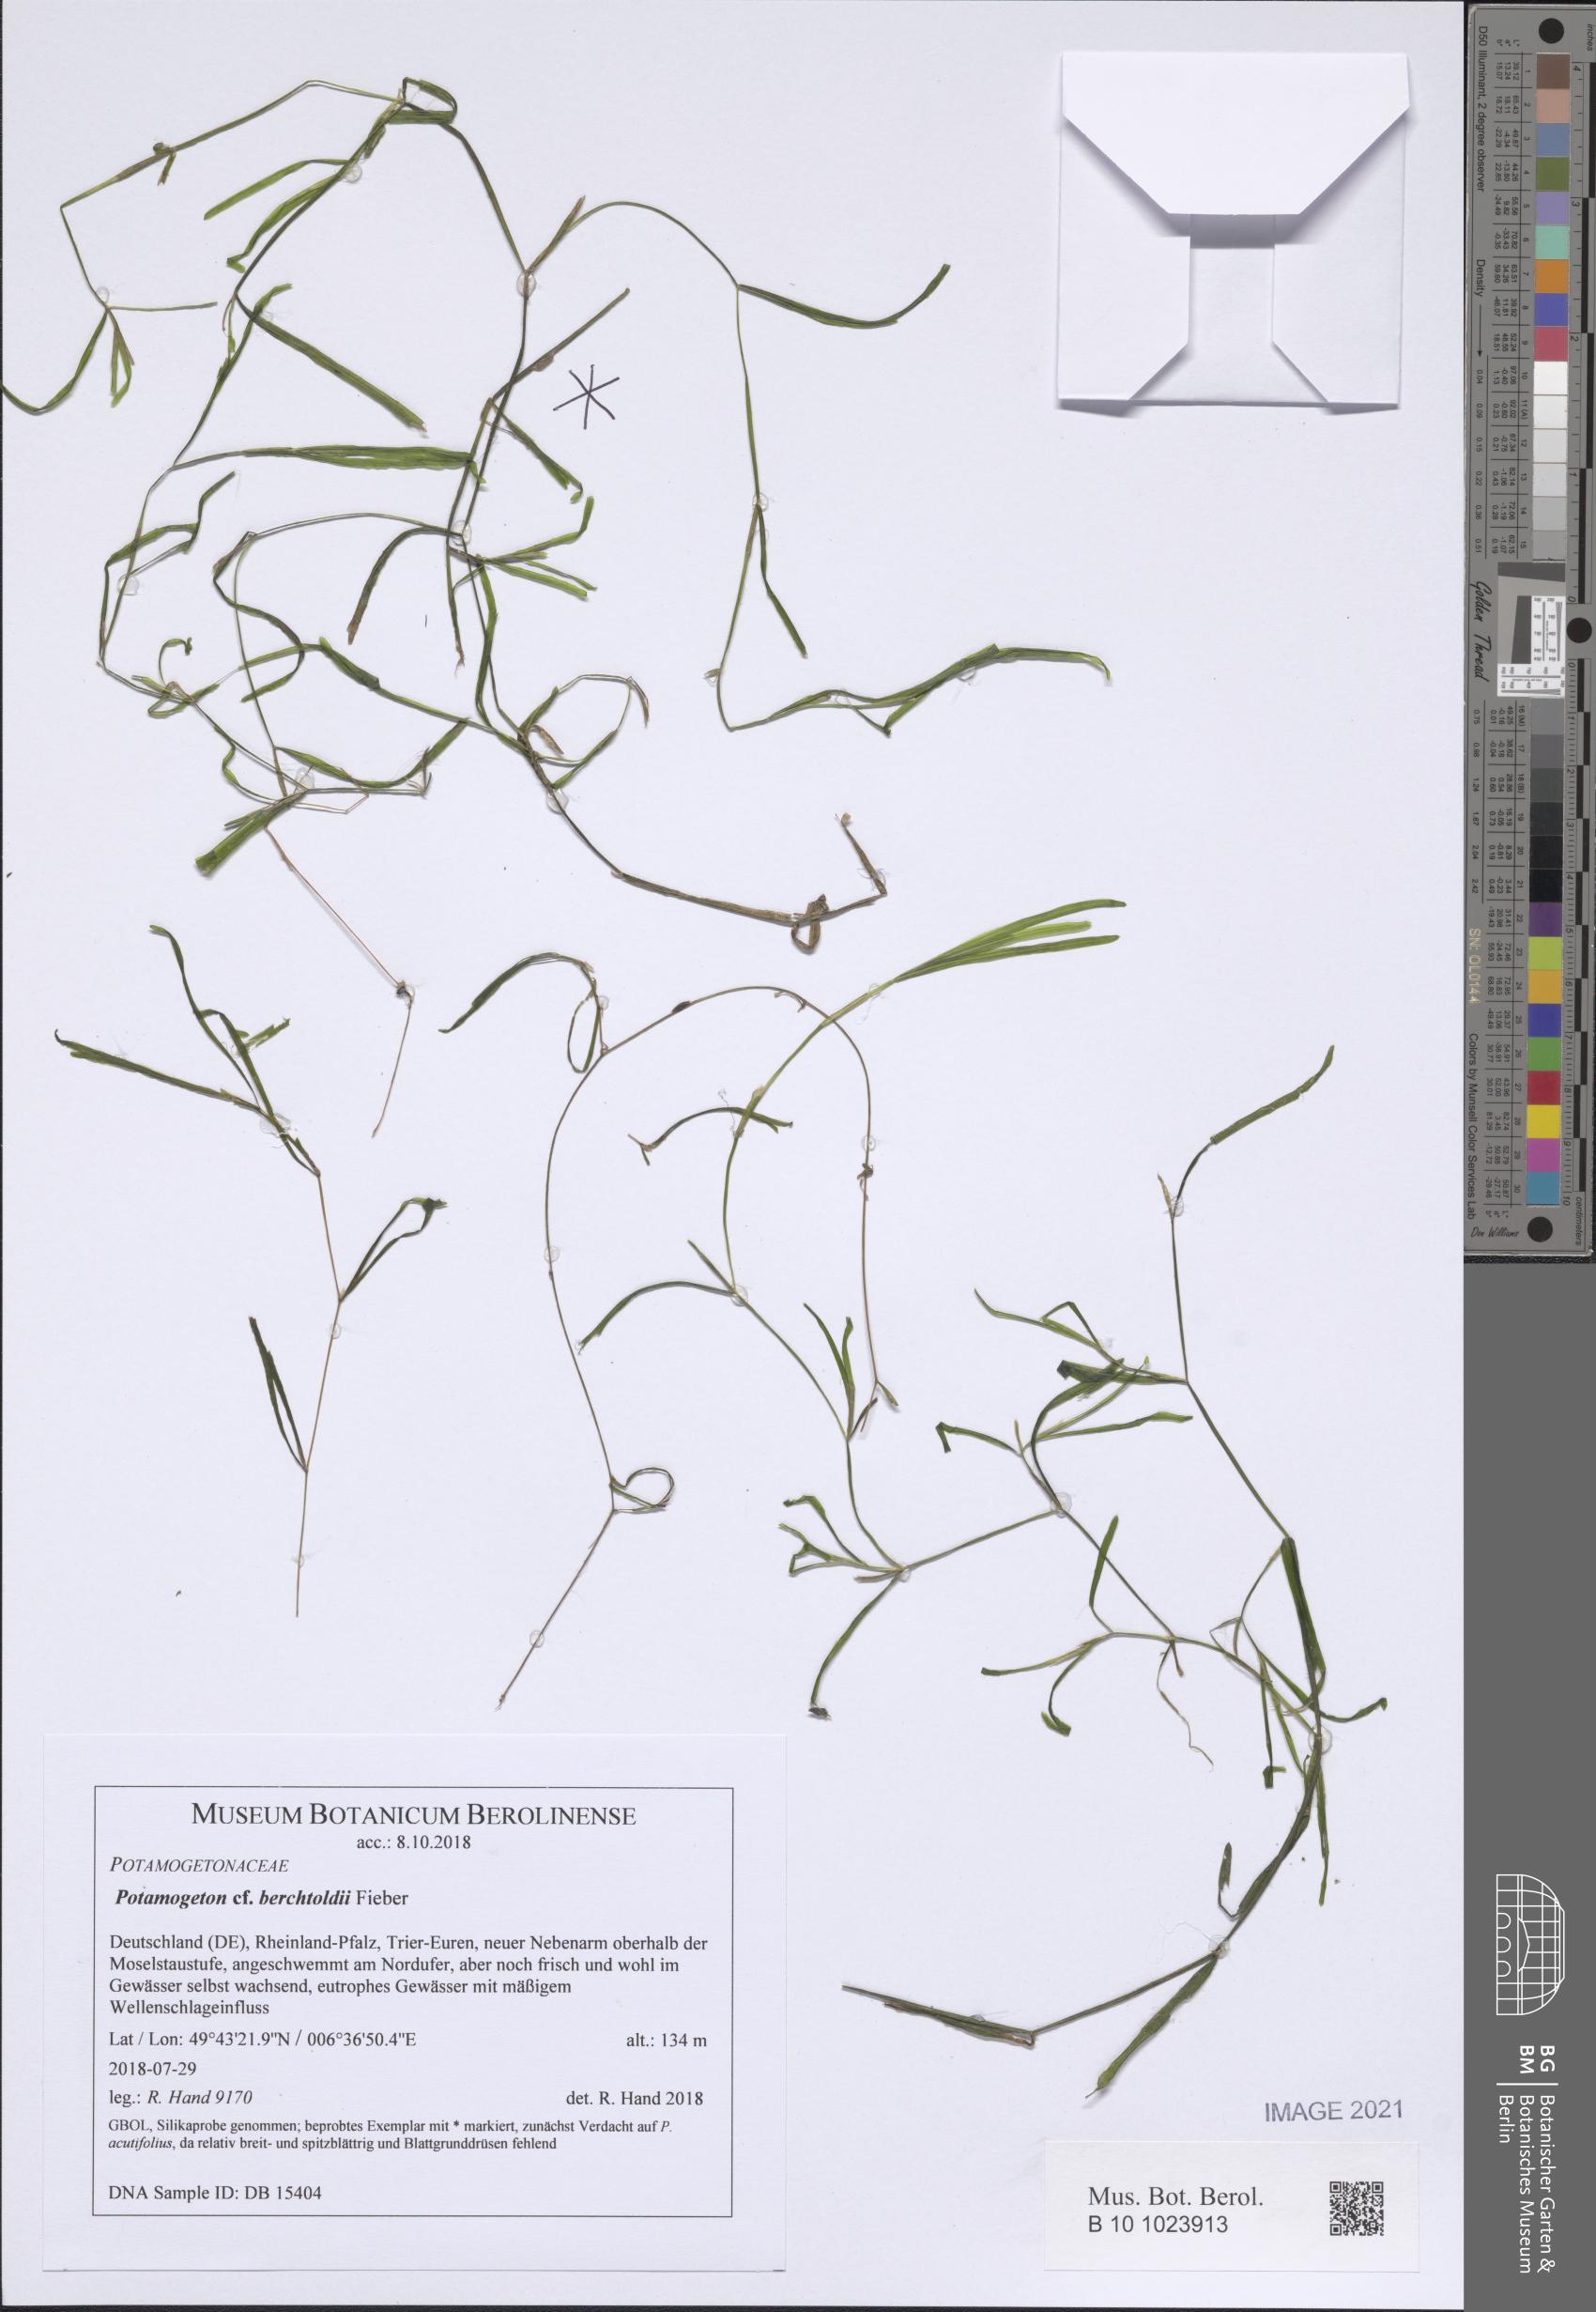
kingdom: Plantae
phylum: Tracheophyta
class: Liliopsida
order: Alismatales
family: Potamogetonaceae
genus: Potamogeton
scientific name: Potamogeton berchtoldii
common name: Small pondweed
